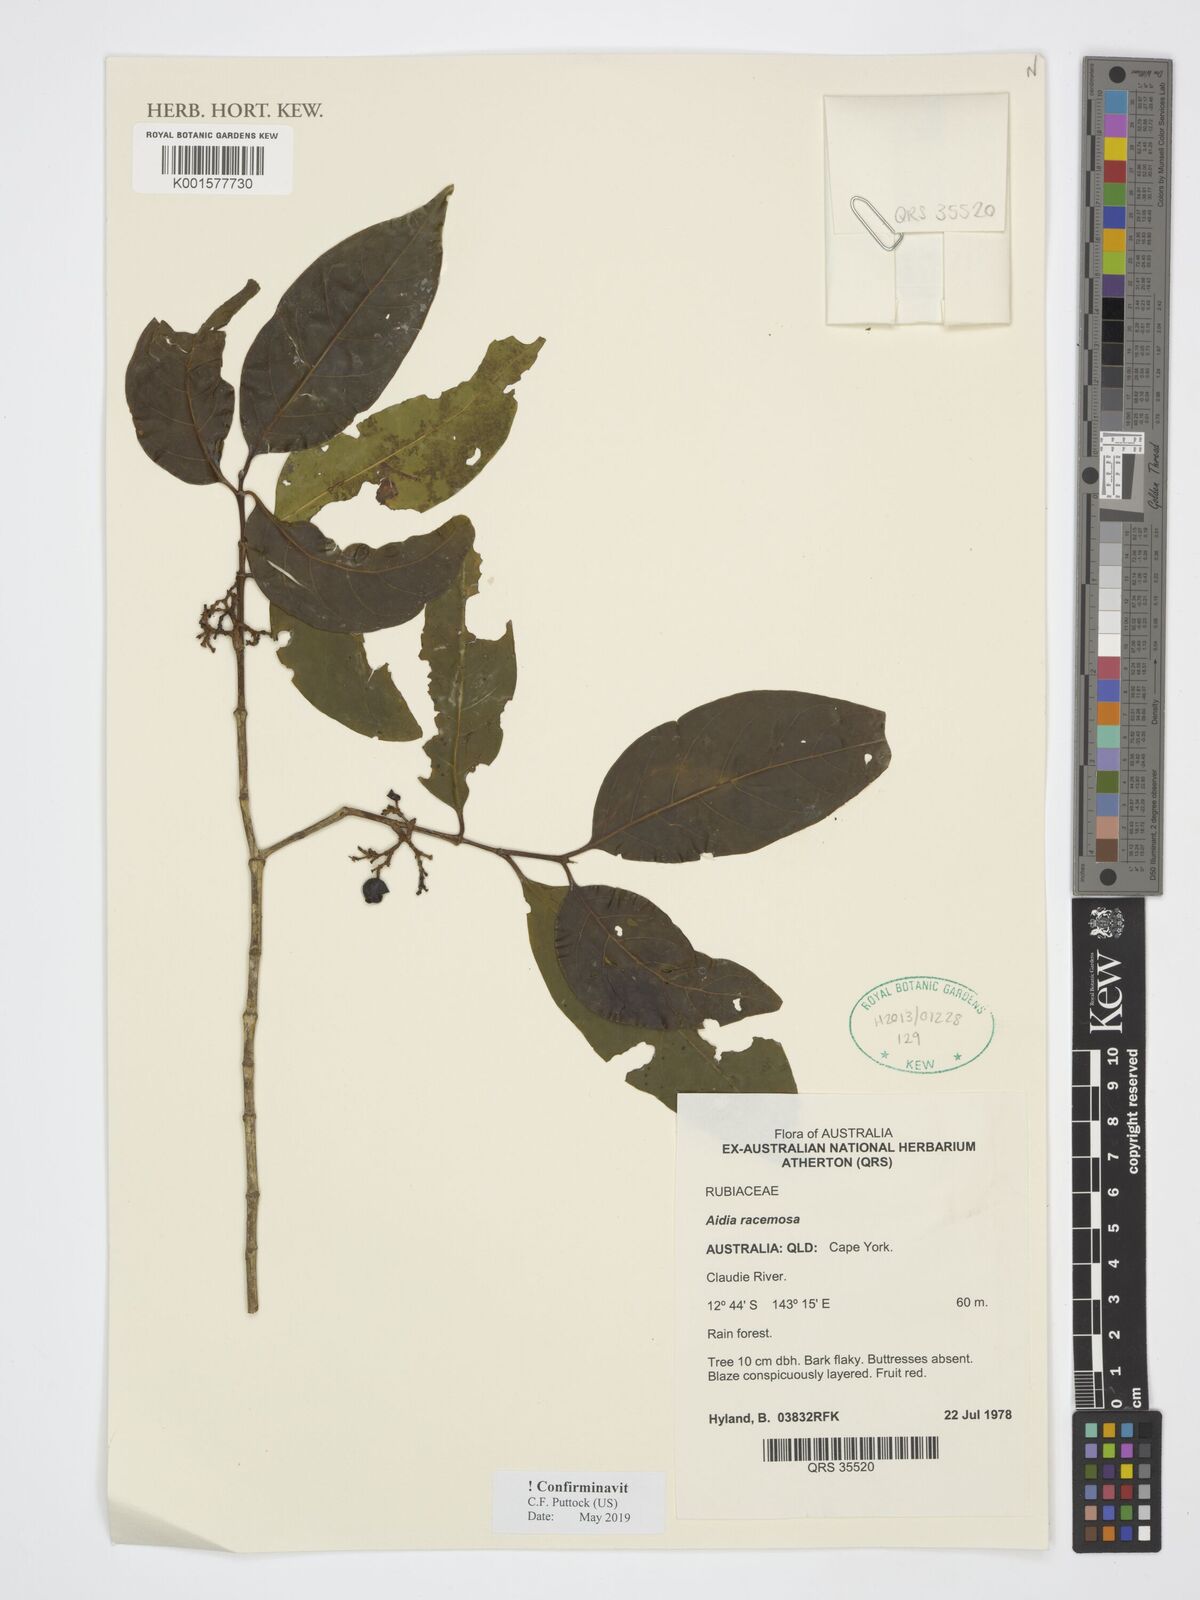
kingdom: Plantae
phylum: Tracheophyta
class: Magnoliopsida
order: Gentianales
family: Rubiaceae
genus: Aidia
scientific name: Aidia racemosa
